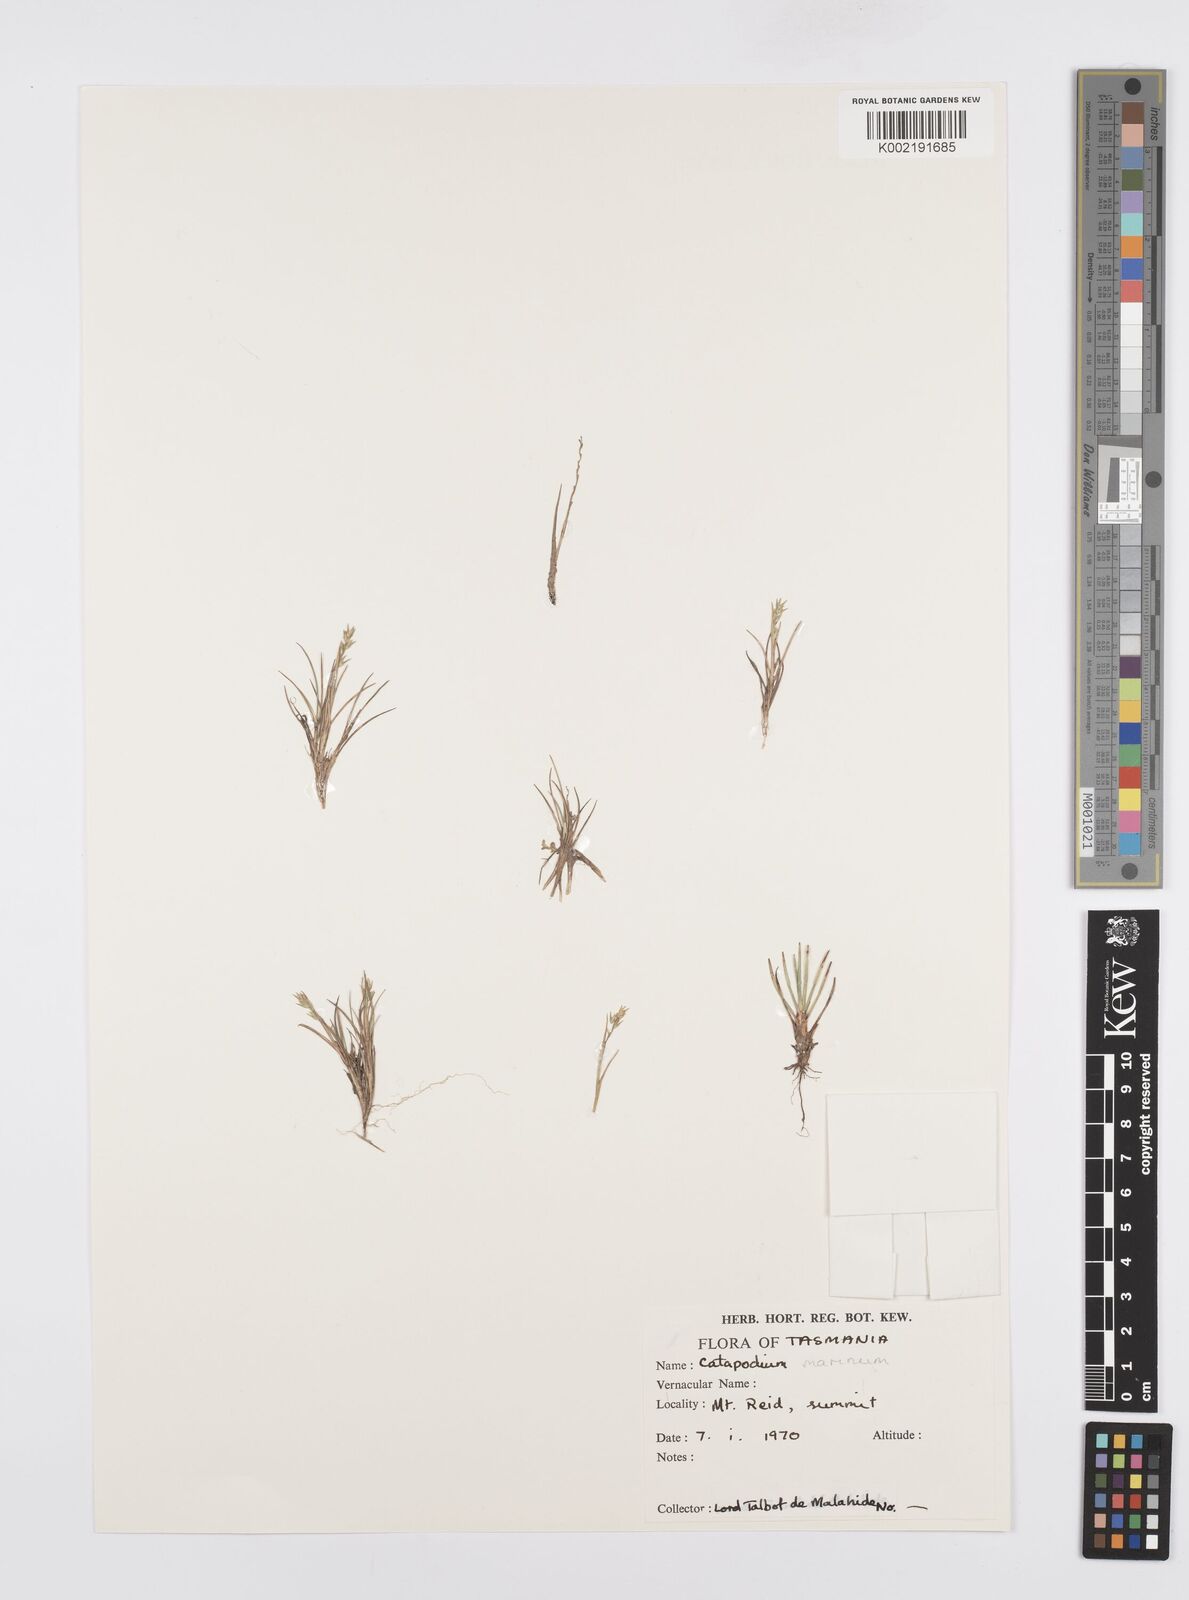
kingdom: Plantae
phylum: Tracheophyta
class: Liliopsida
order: Poales
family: Poaceae
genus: Catapodium
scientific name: Catapodium marinum
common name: Sea fern-grass
